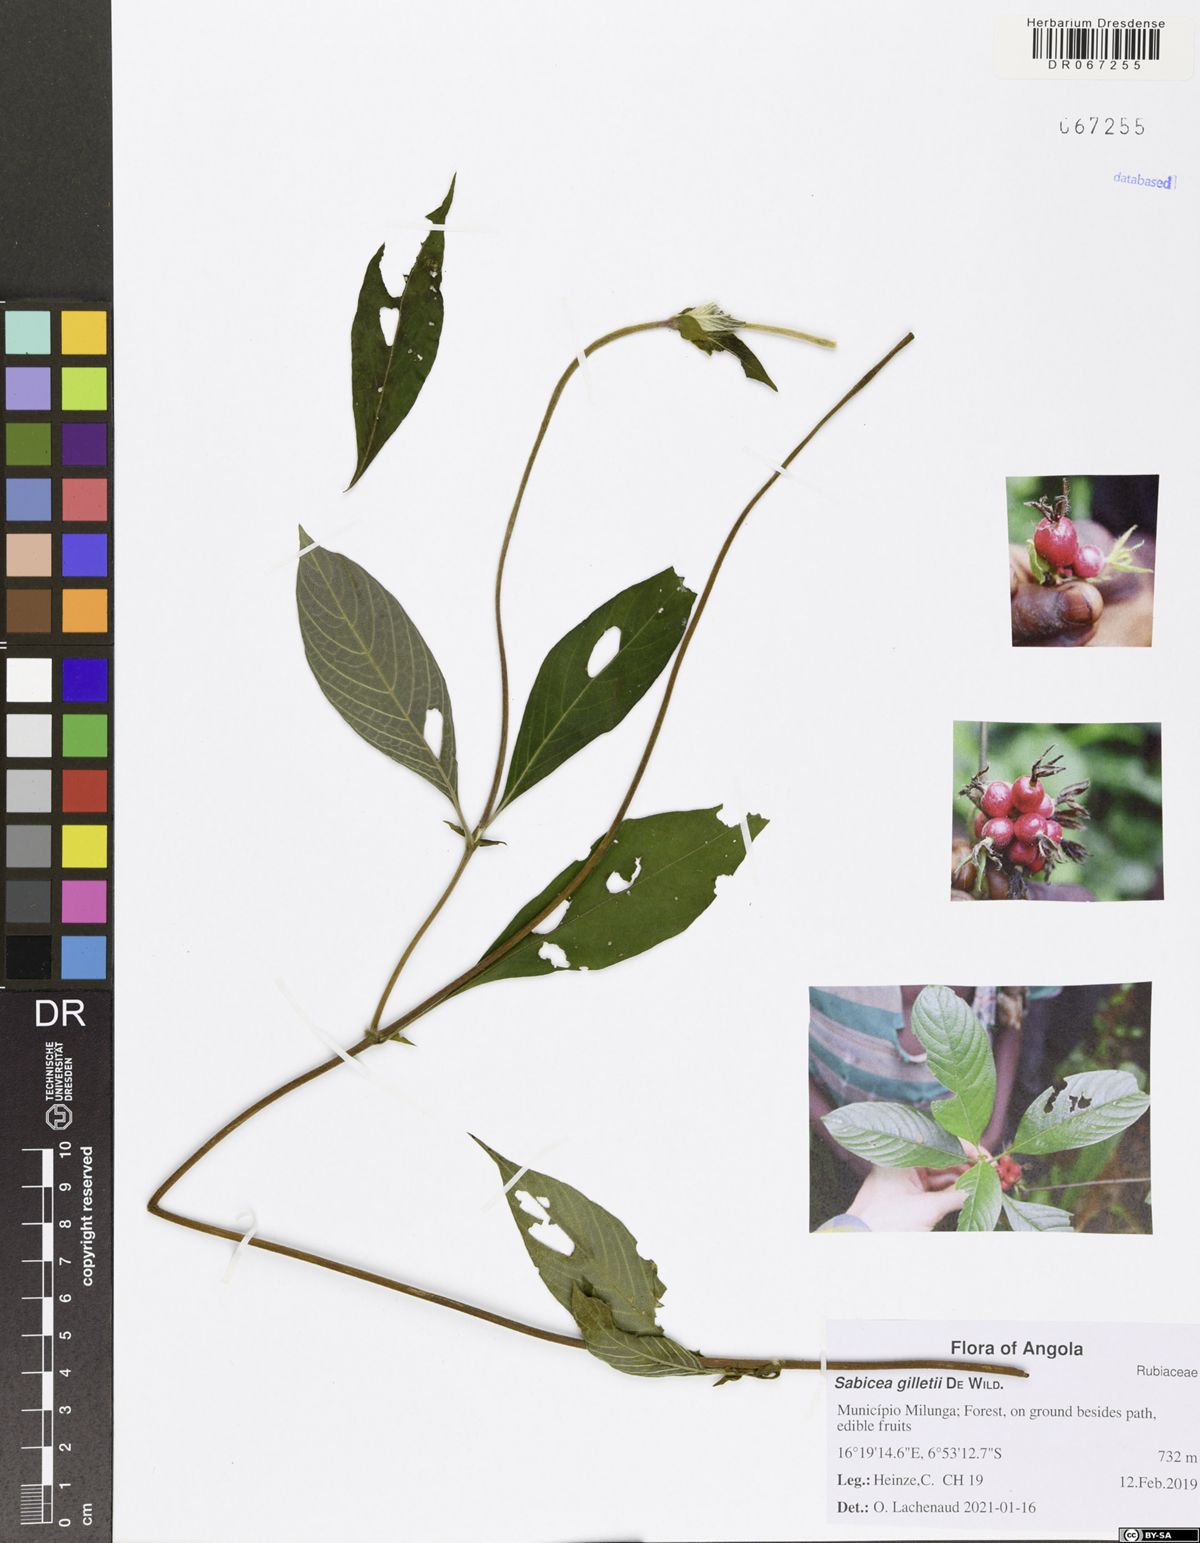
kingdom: Plantae
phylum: Tracheophyta
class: Magnoliopsida
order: Gentianales
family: Rubiaceae
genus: Sabicea
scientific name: Sabicea gilletii
